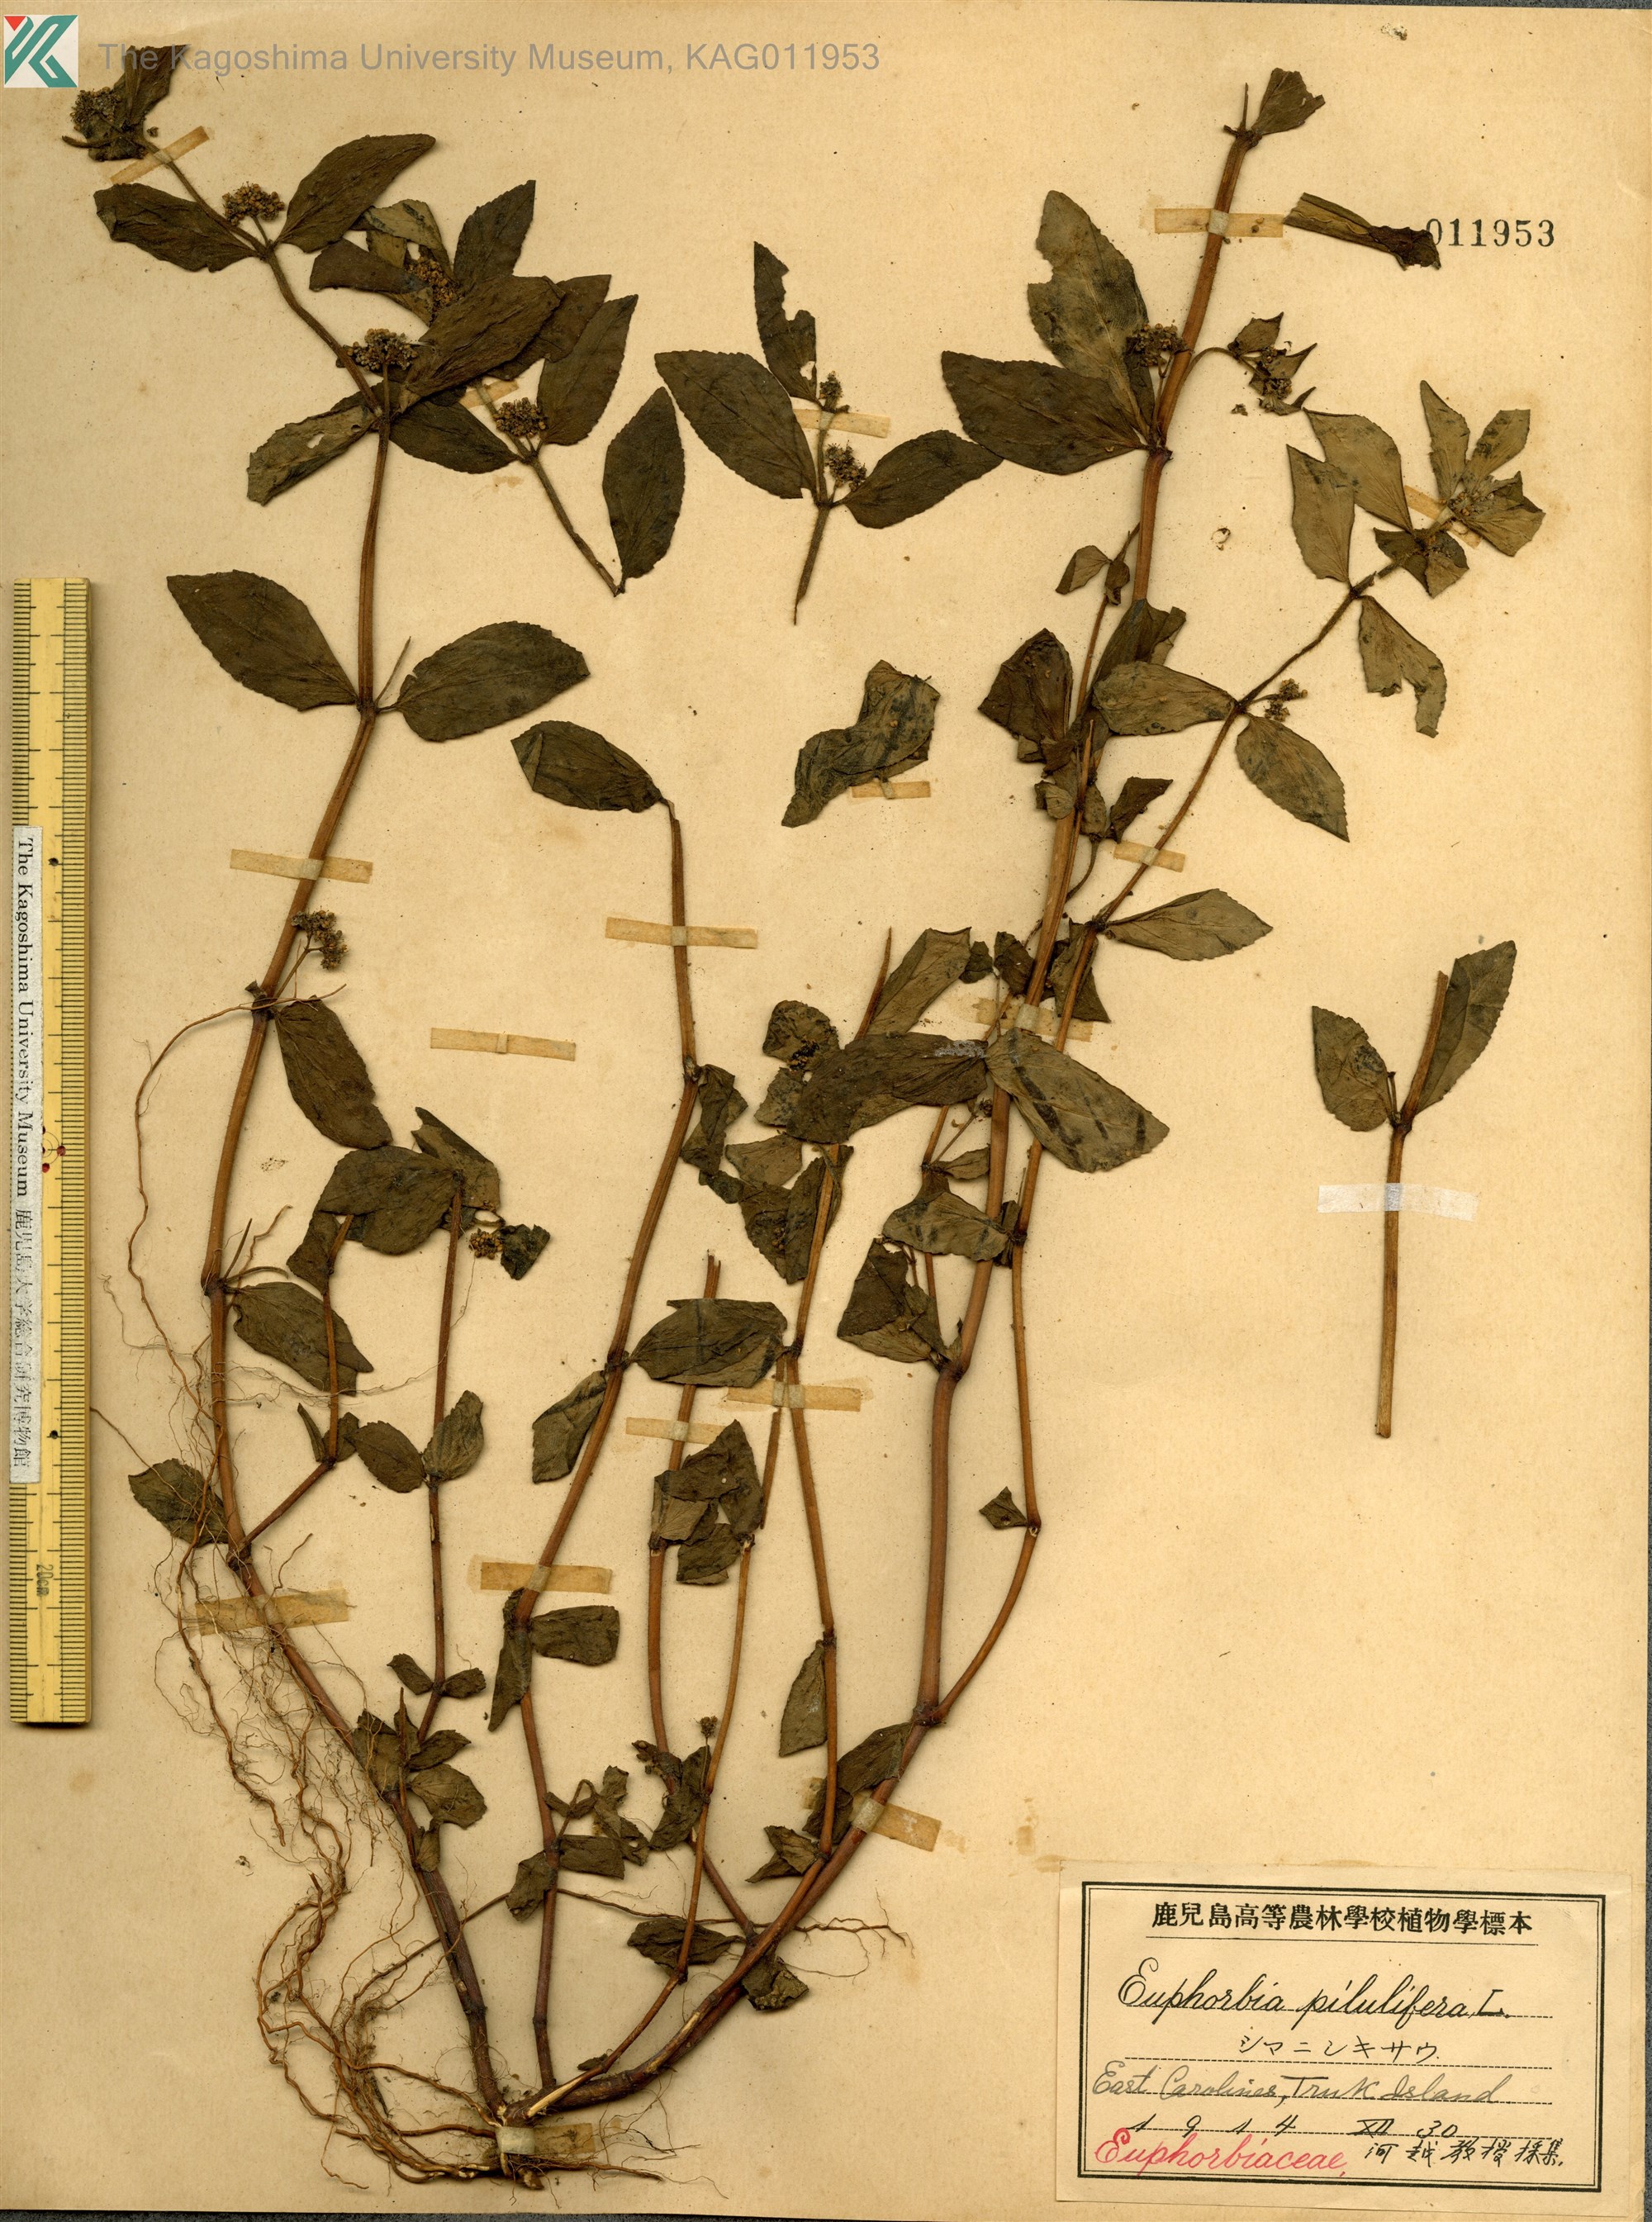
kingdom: Plantae
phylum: Tracheophyta
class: Magnoliopsida
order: Malpighiales
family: Euphorbiaceae
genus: Euphorbia
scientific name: Euphorbia hirta
